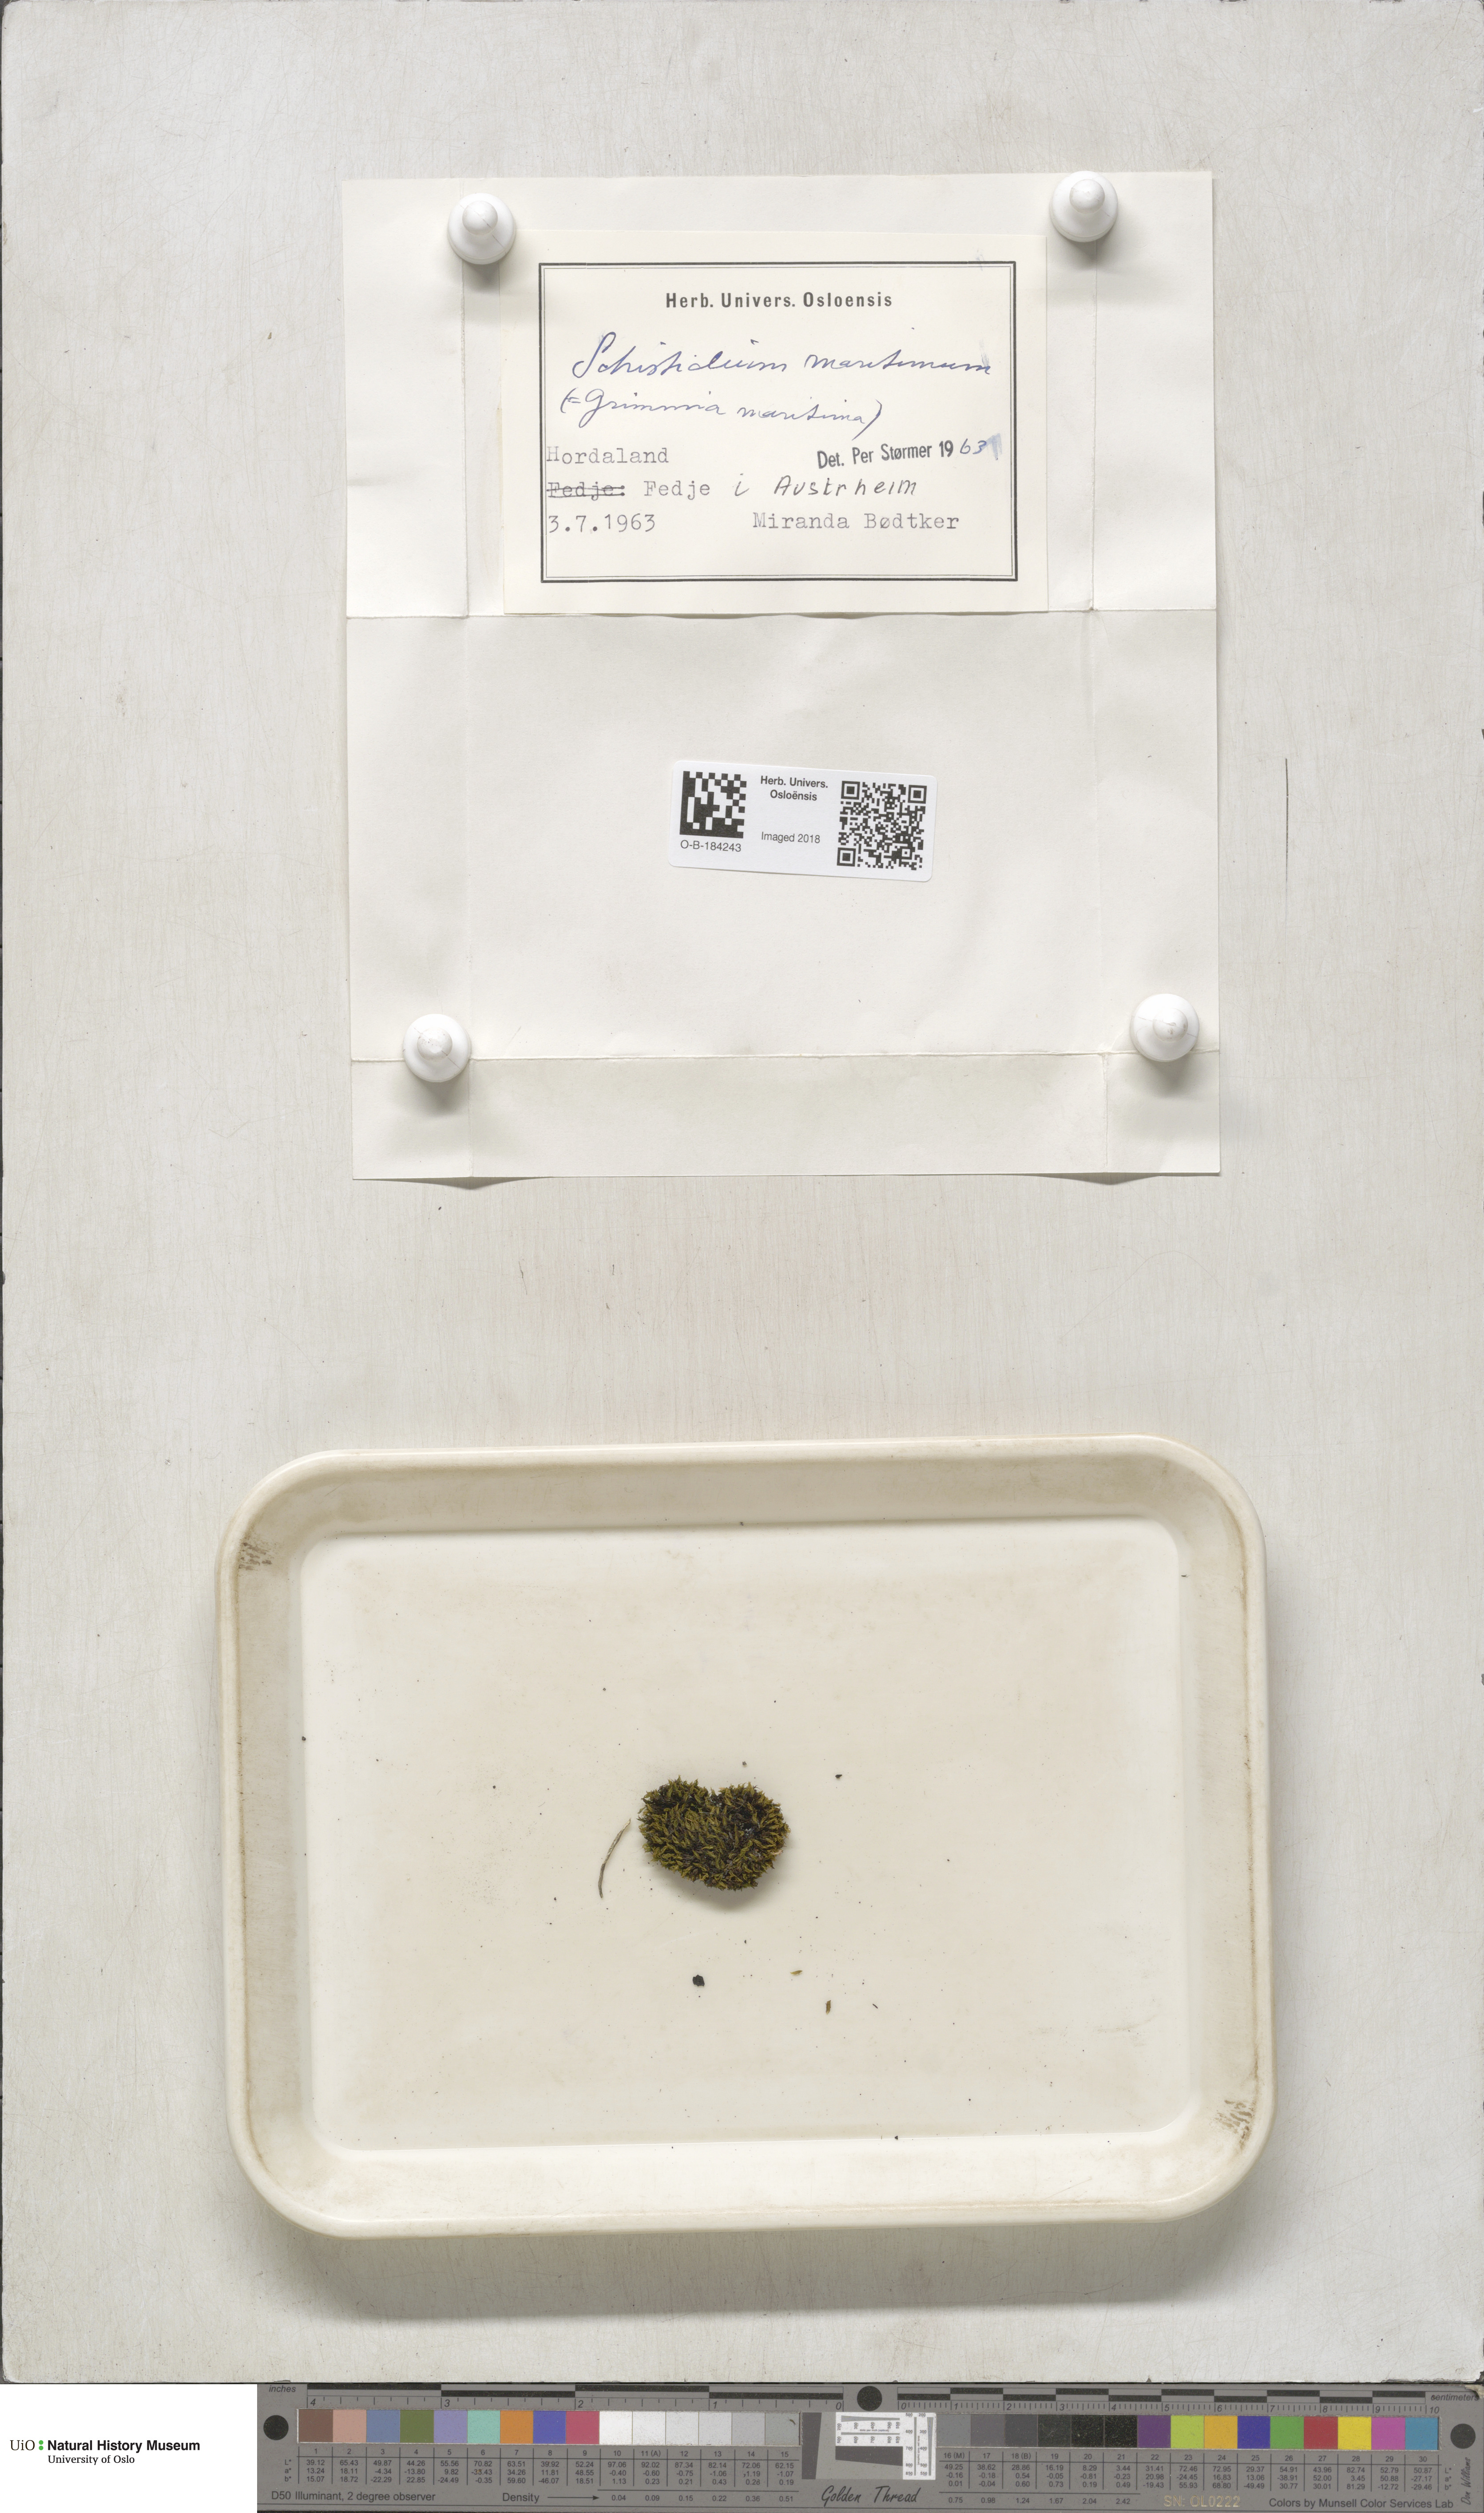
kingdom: Plantae
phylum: Bryophyta
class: Bryopsida
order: Grimmiales
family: Grimmiaceae
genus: Schistidium
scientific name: Schistidium maritimum
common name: Seaside bloom moss
